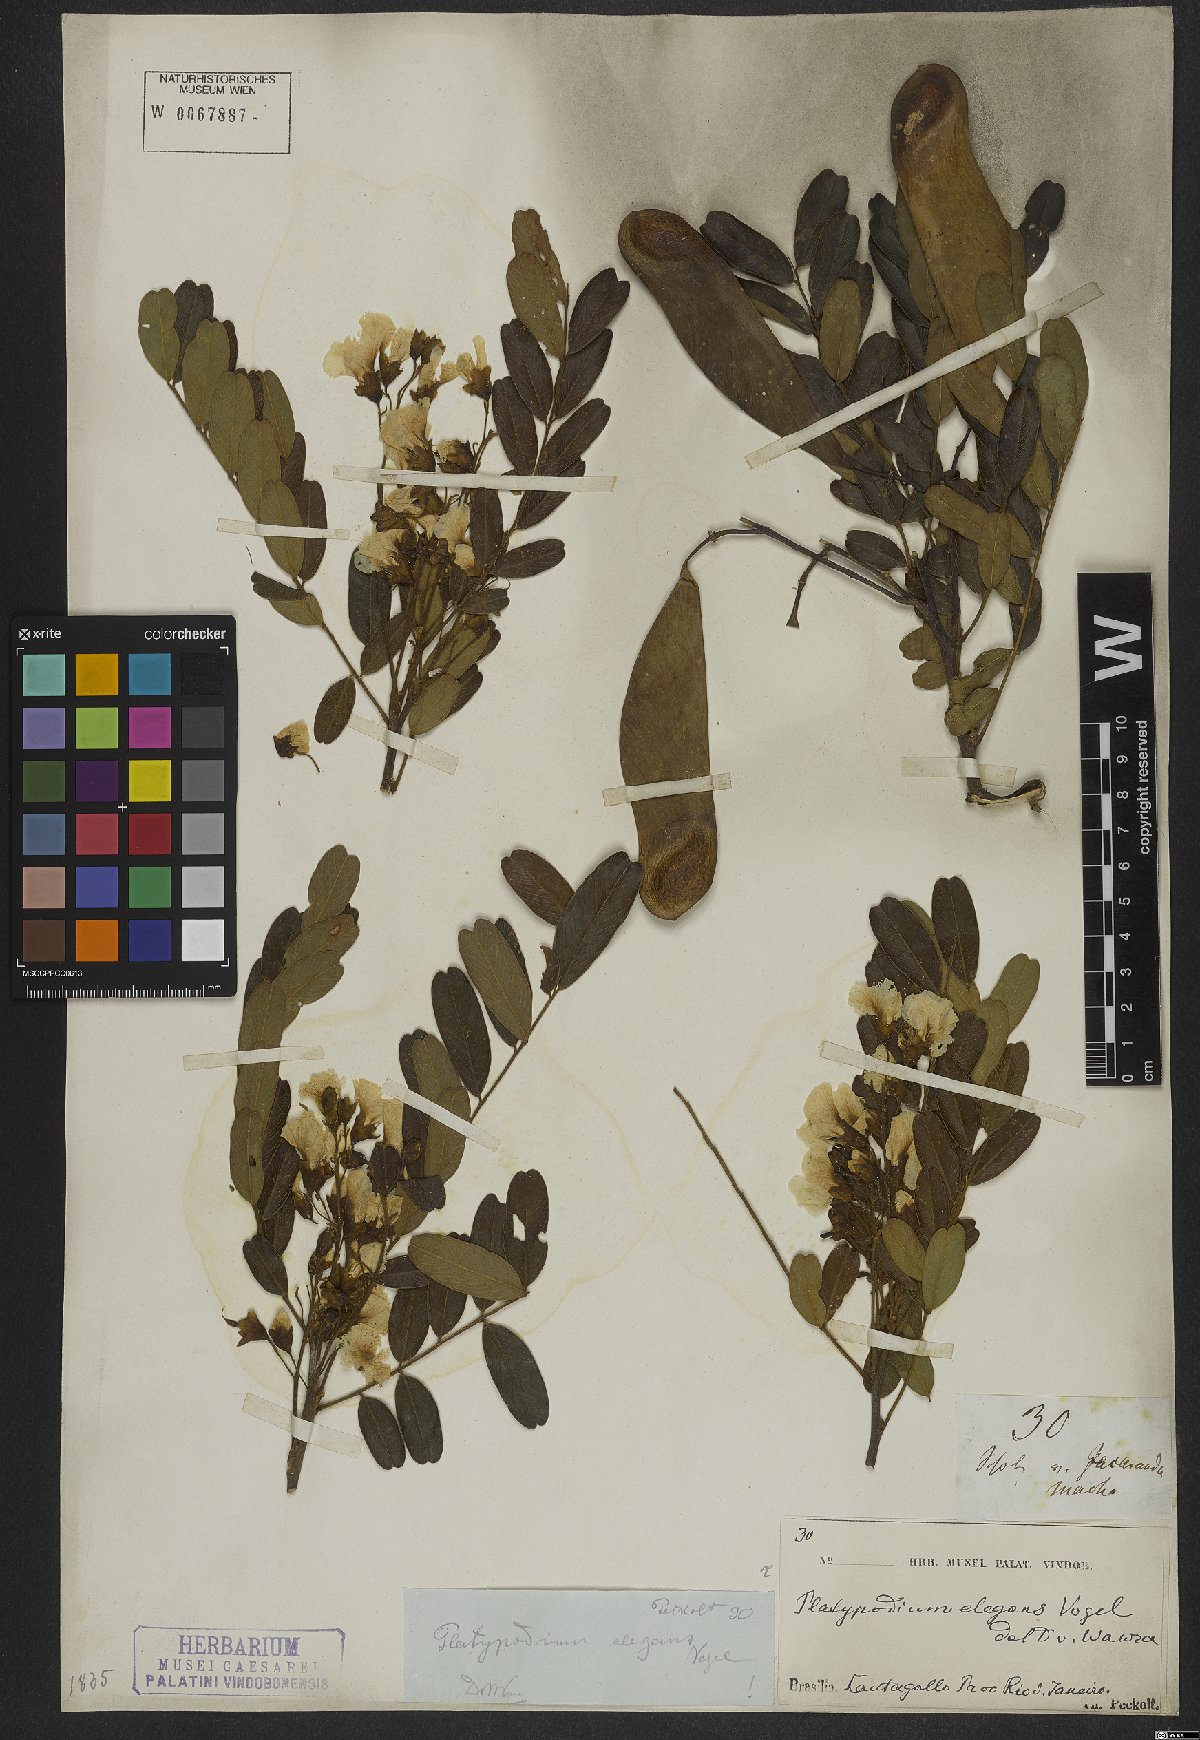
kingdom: Plantae
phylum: Tracheophyta
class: Magnoliopsida
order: Fabales
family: Fabaceae
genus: Platypodium
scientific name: Platypodium elegans
